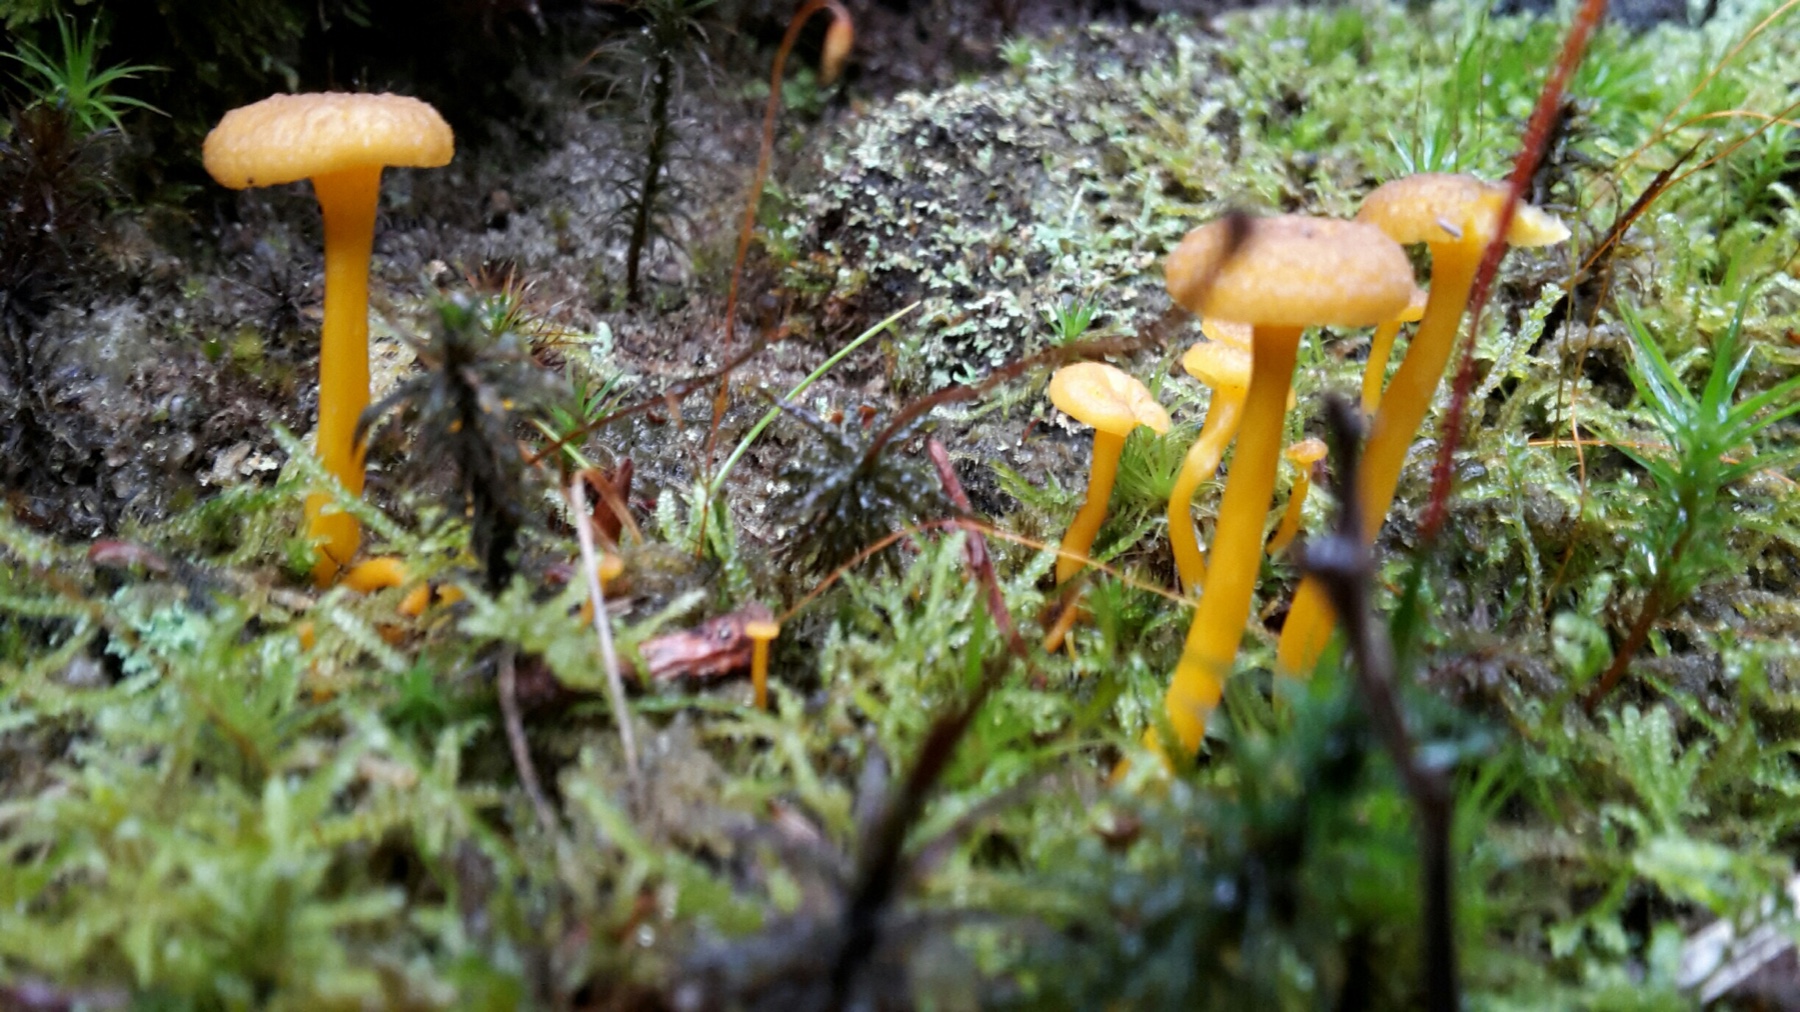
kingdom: Fungi
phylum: Basidiomycota
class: Agaricomycetes
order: Cantharellales
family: Hydnaceae
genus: Craterellus
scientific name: Craterellus tubaeformis
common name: tragt-kantarel
